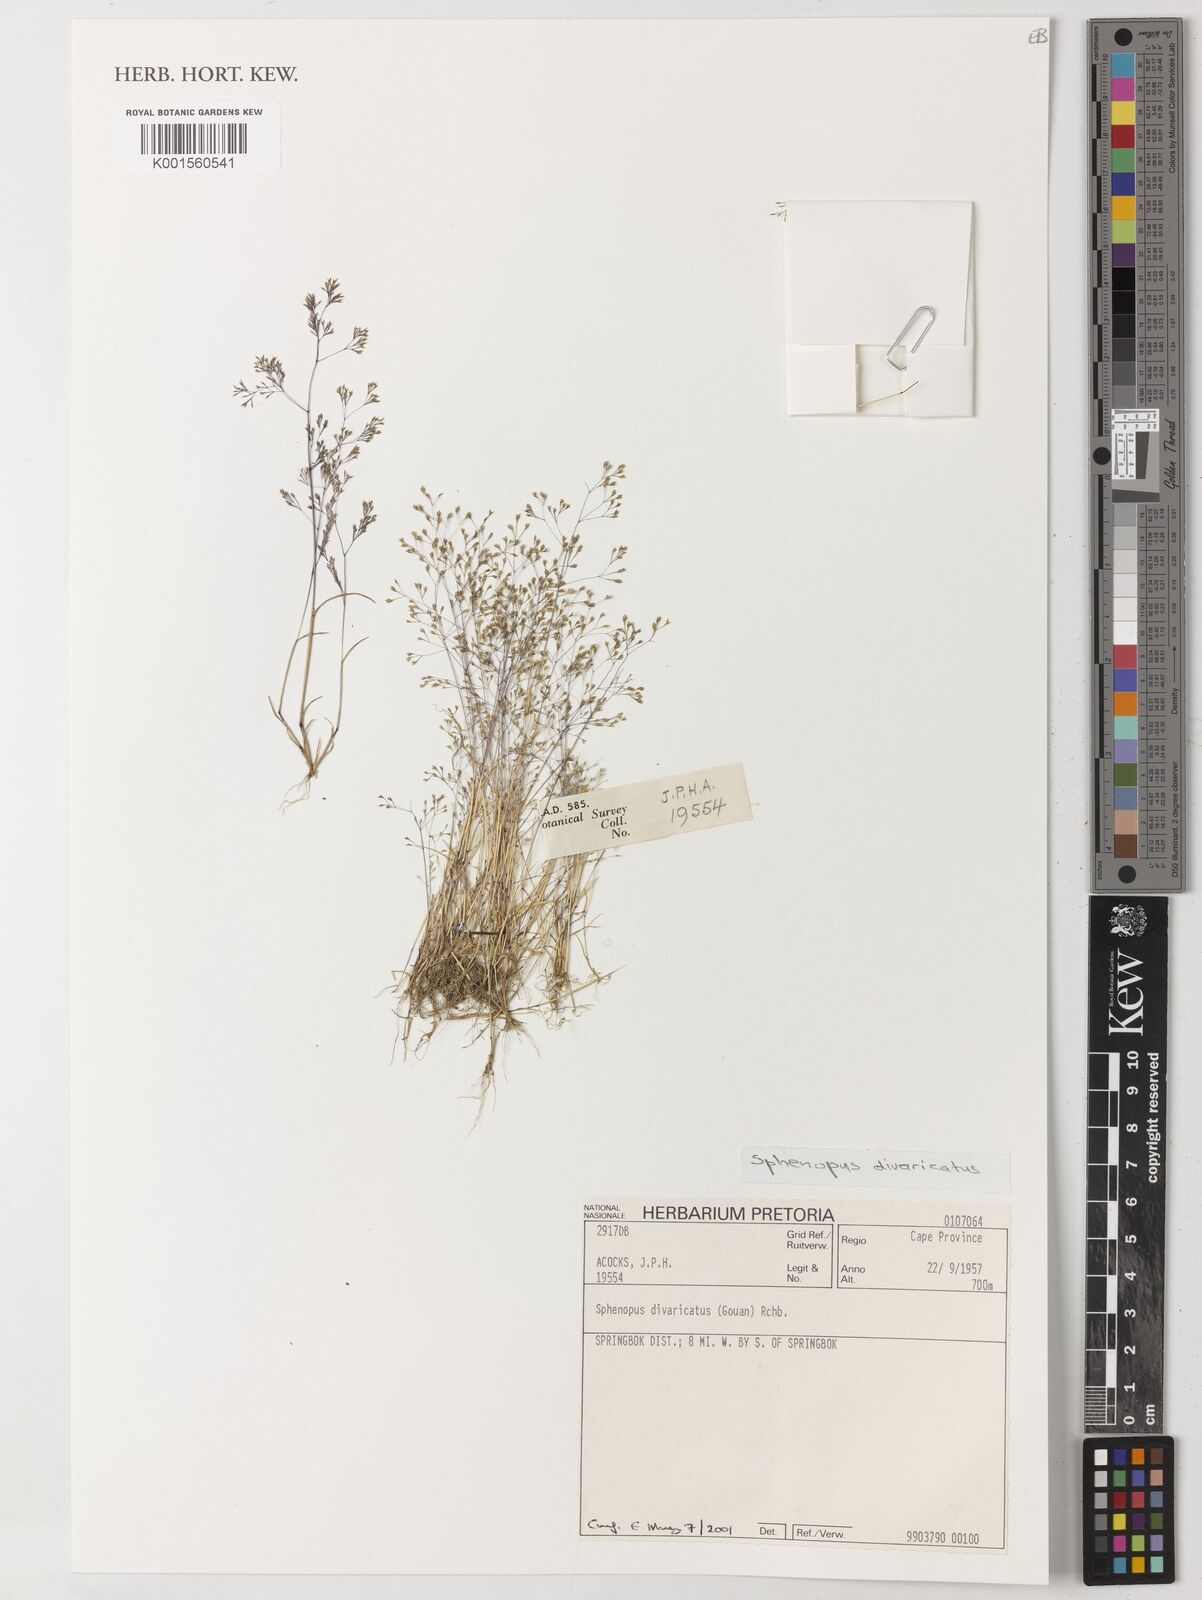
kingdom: Plantae
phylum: Tracheophyta
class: Liliopsida
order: Poales
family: Poaceae
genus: Sphenopus
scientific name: Sphenopus divaricatus
